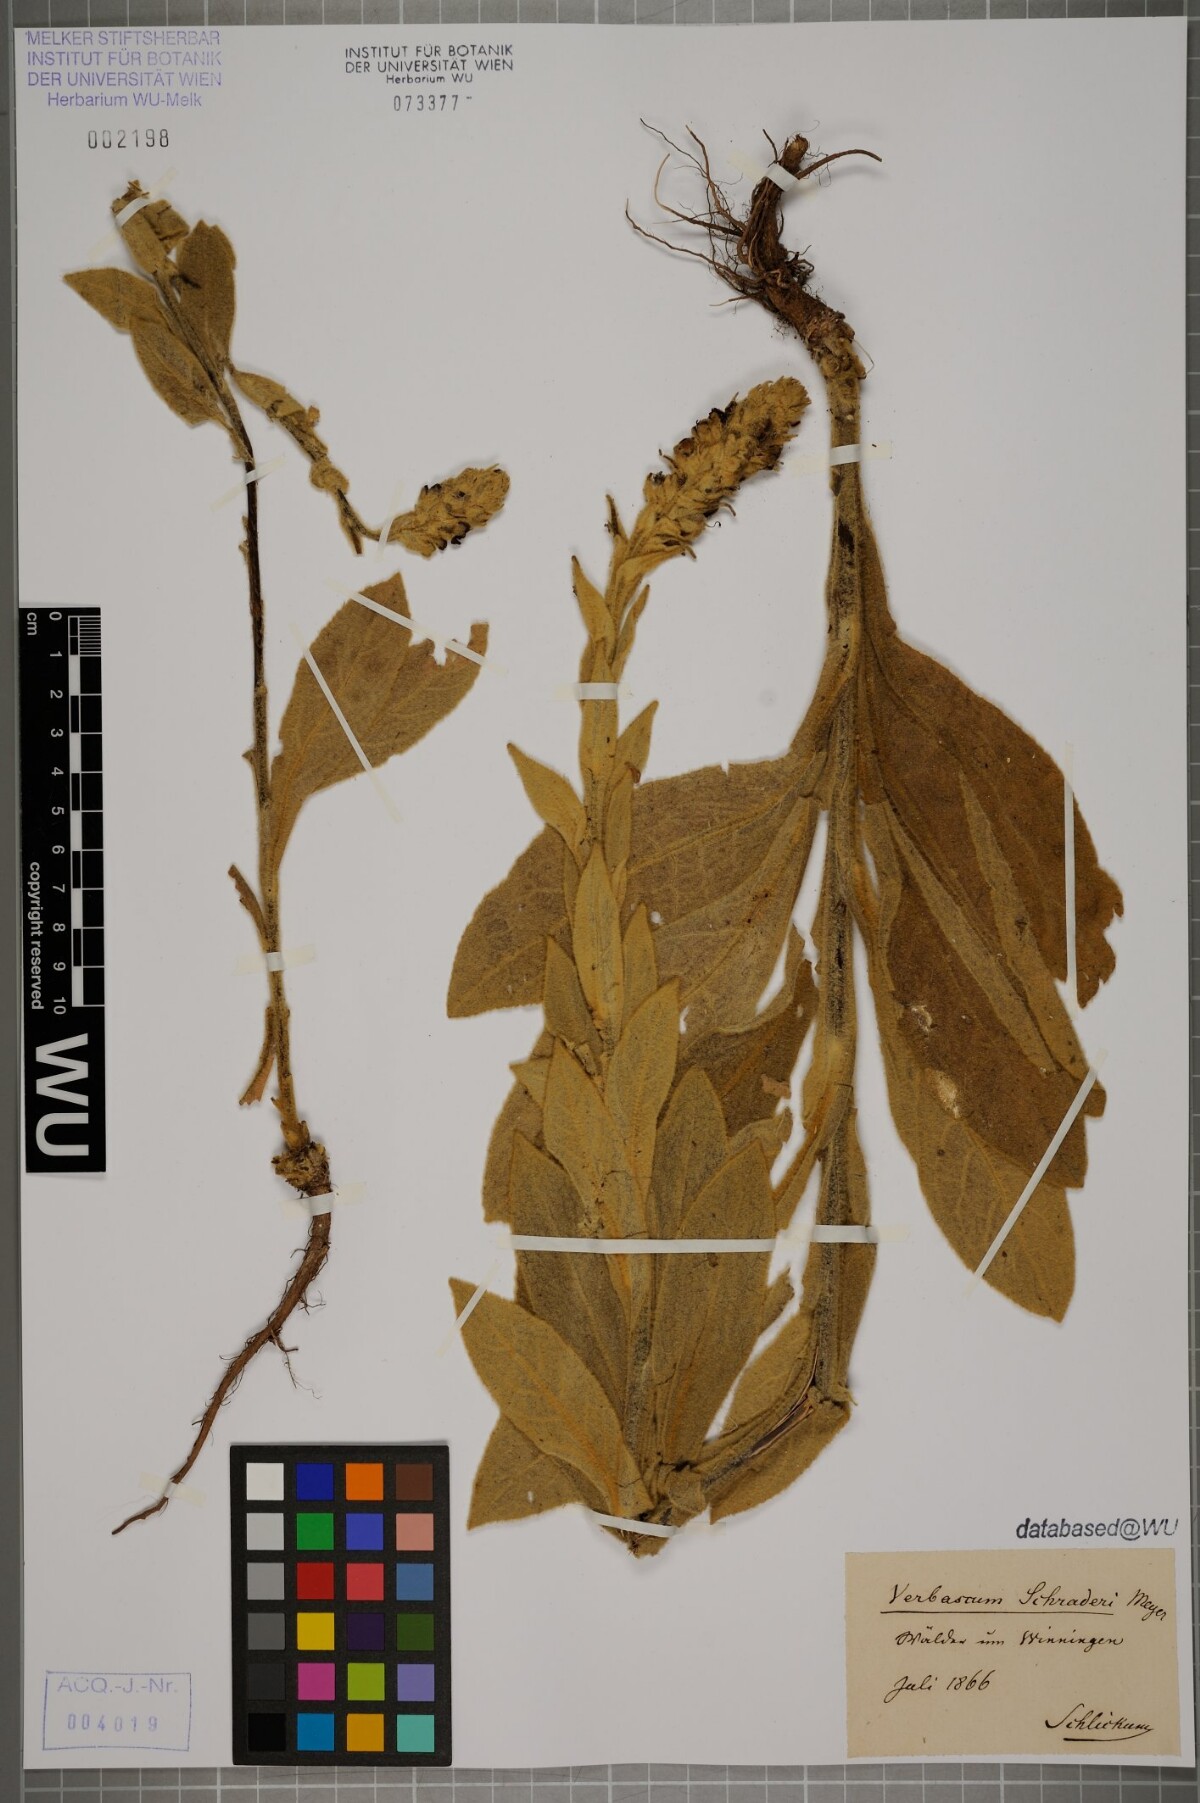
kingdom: Plantae
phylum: Tracheophyta
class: Magnoliopsida
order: Lamiales
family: Scrophulariaceae
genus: Verbascum
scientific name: Verbascum thapsus
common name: Common mullein
